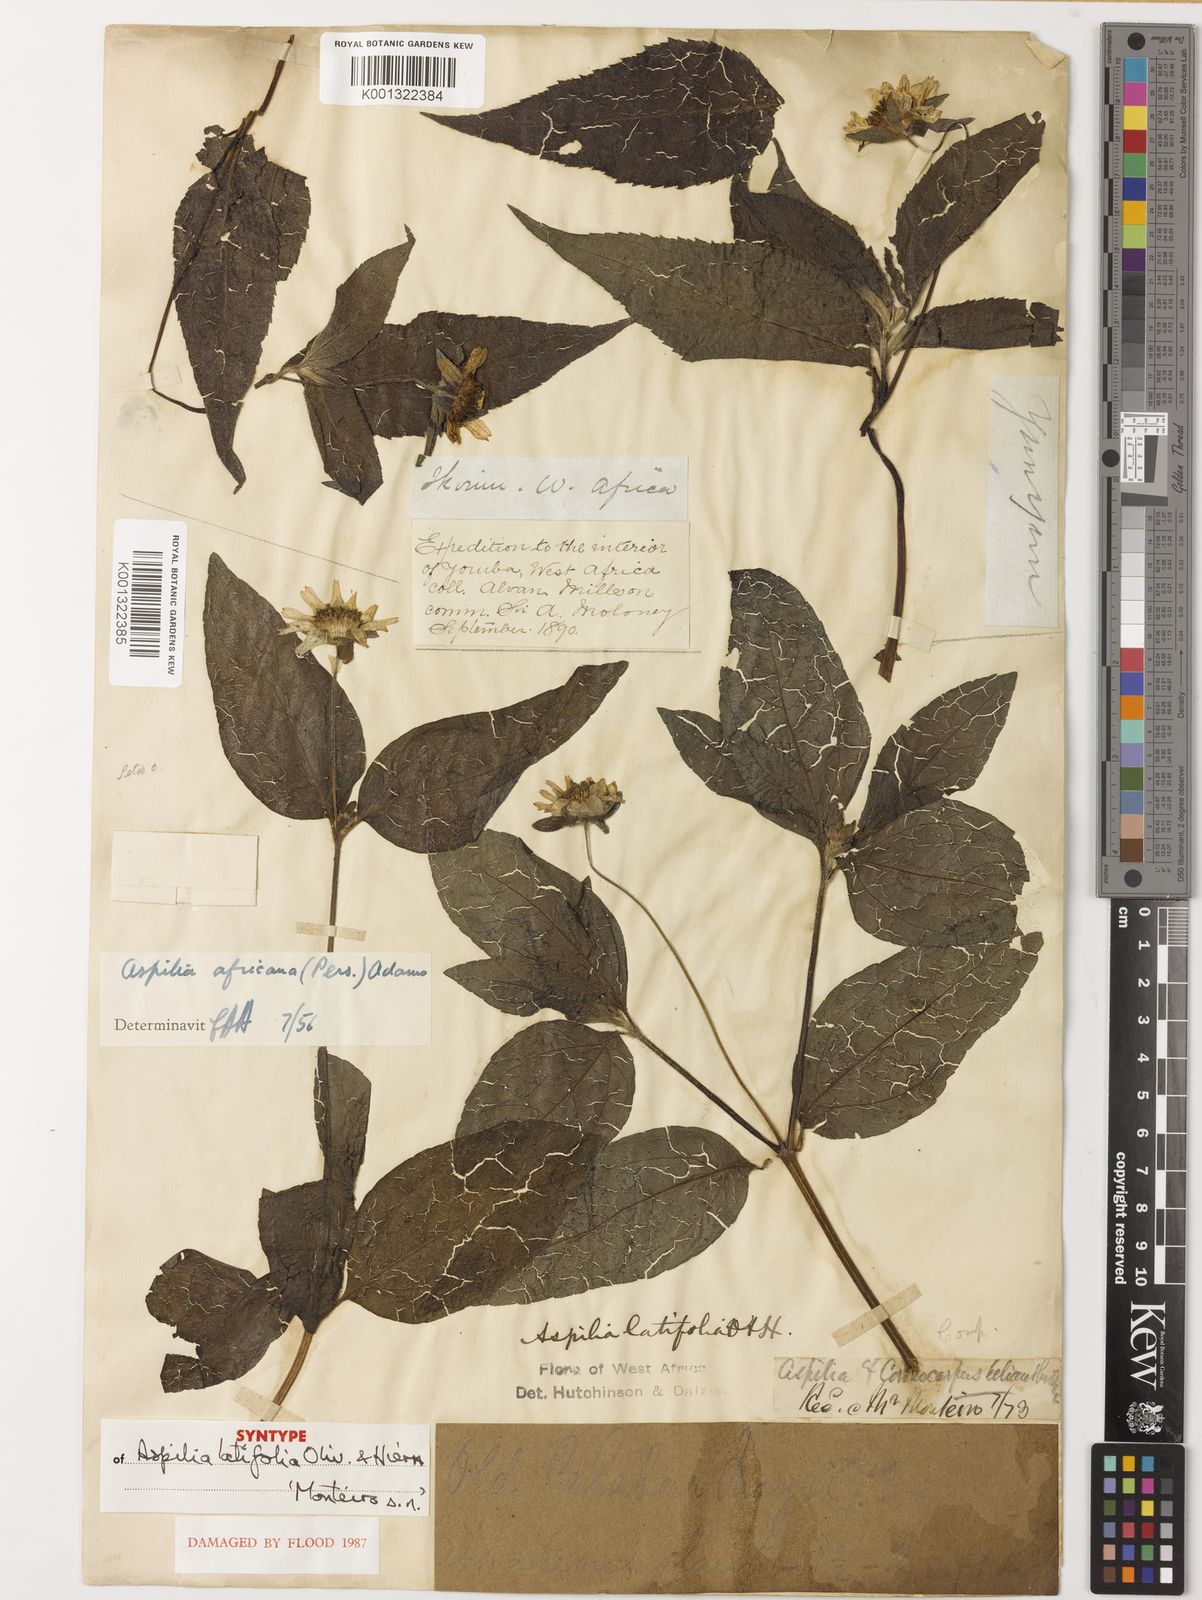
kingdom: Plantae
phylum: Tracheophyta
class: Magnoliopsida
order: Asterales
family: Asteraceae
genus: Aspilia
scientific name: Aspilia africana
